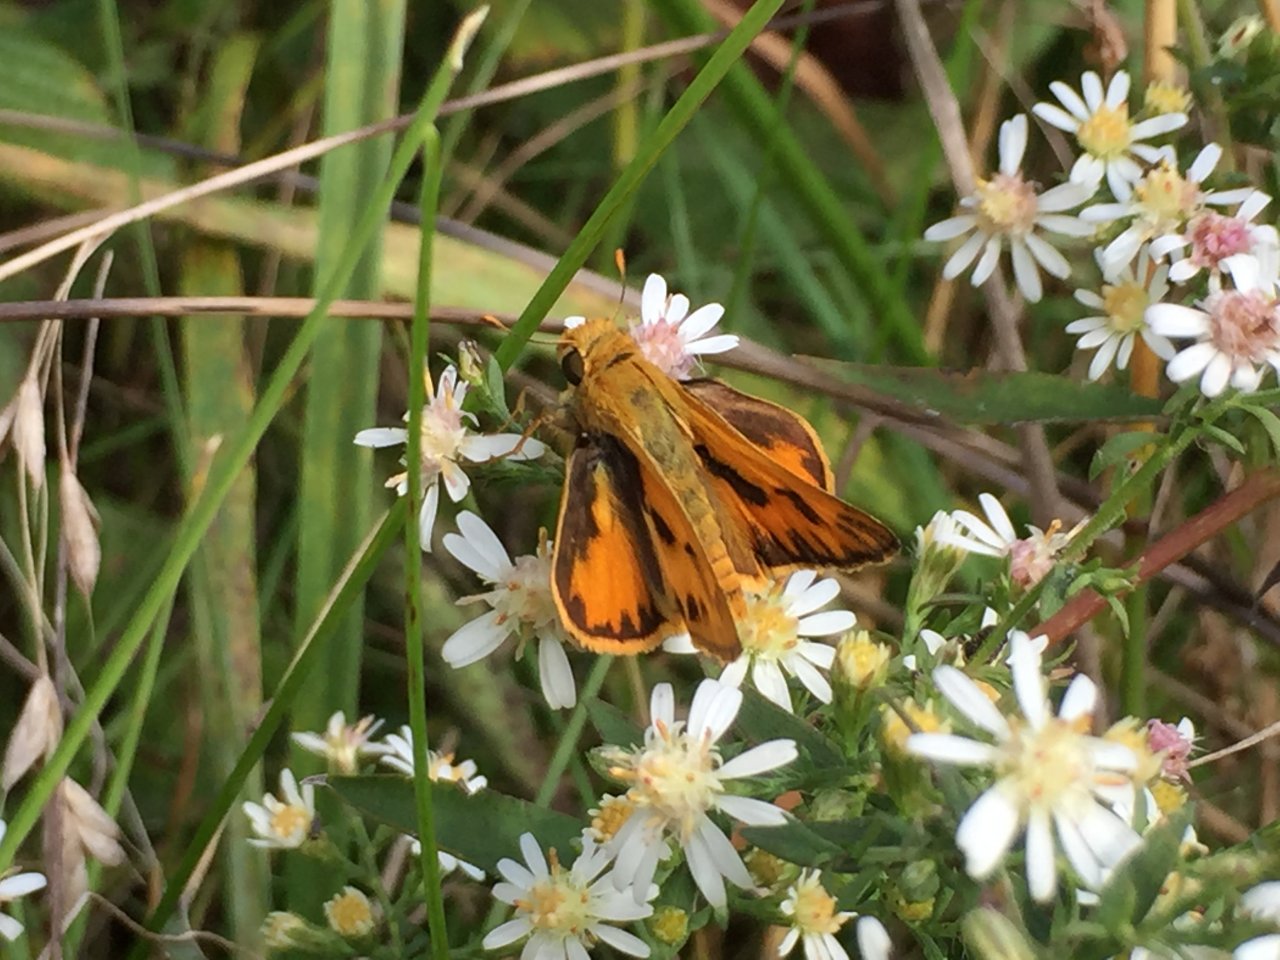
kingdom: Animalia
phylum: Arthropoda
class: Insecta
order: Lepidoptera
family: Hesperiidae
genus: Hylephila
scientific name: Hylephila phyleus
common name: Fiery Skipper
